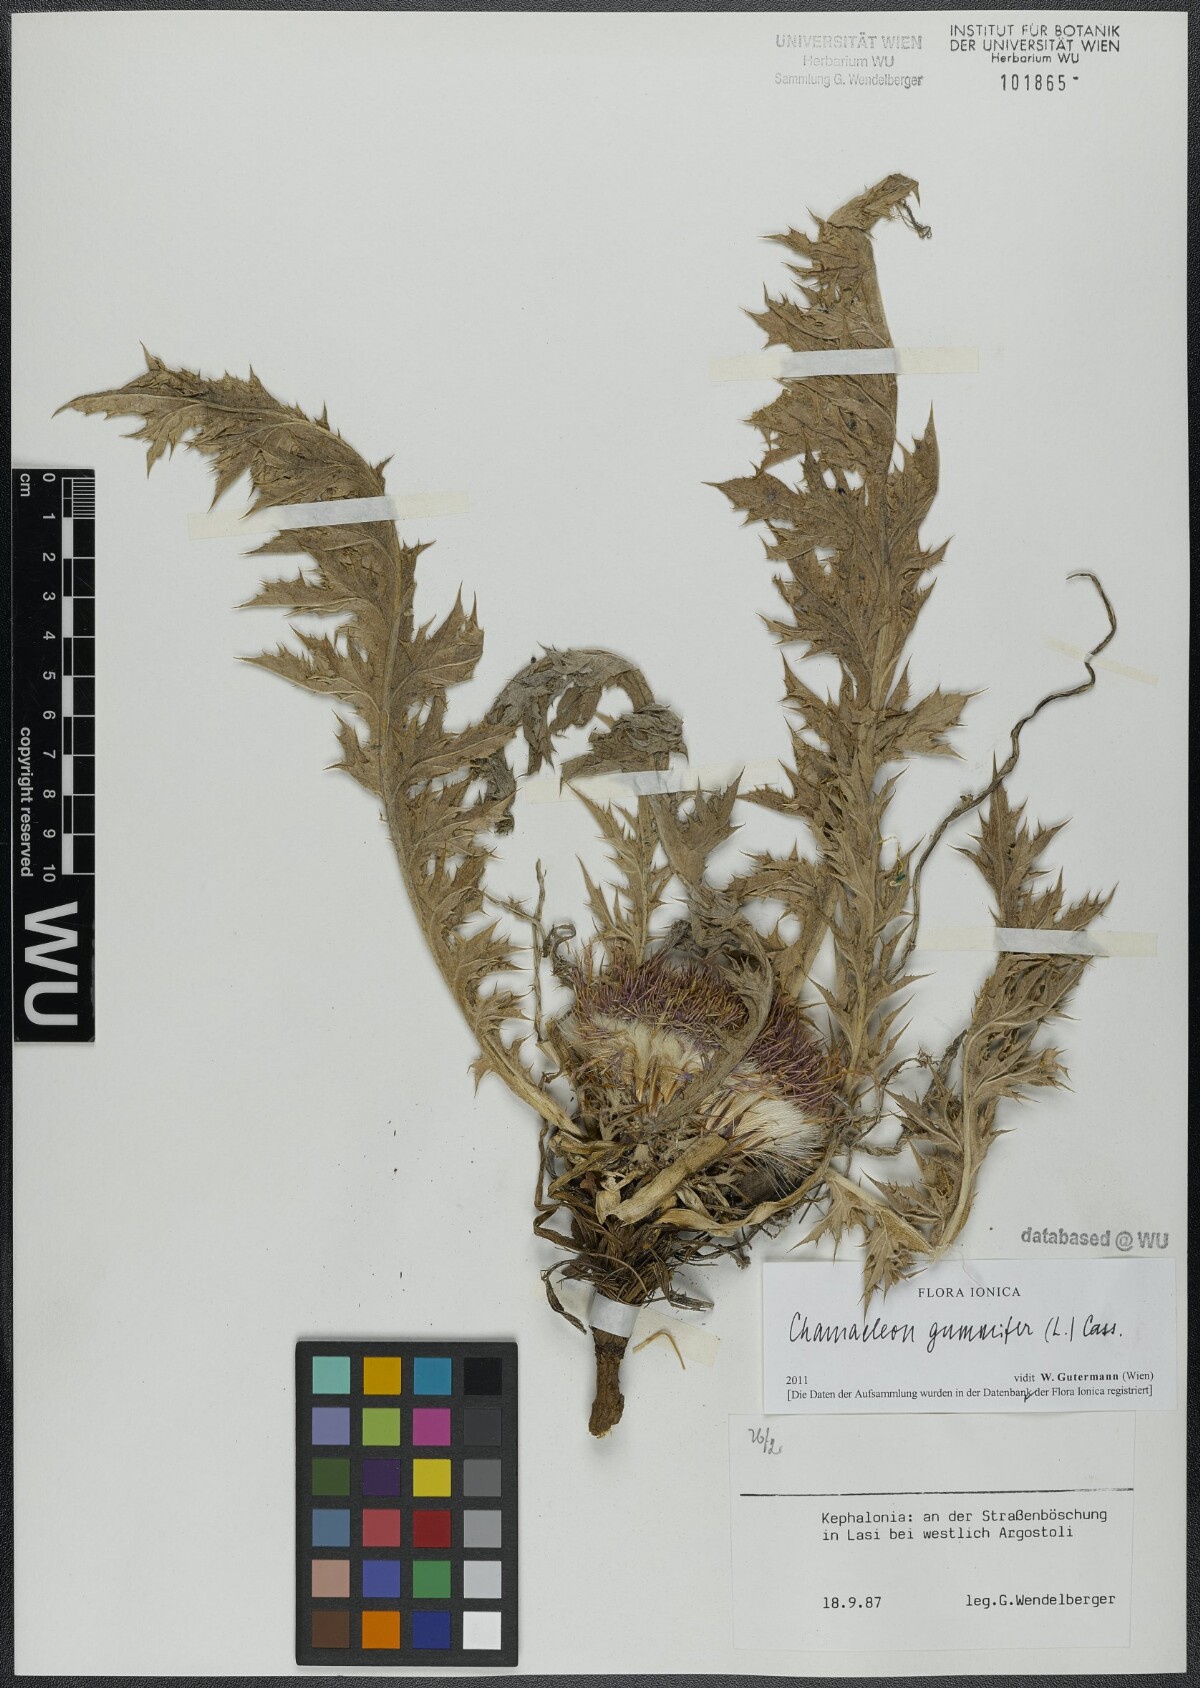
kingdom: Plantae
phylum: Tracheophyta
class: Magnoliopsida
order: Asterales
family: Asteraceae
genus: Chamaeleon
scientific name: Chamaeleon gummifer
